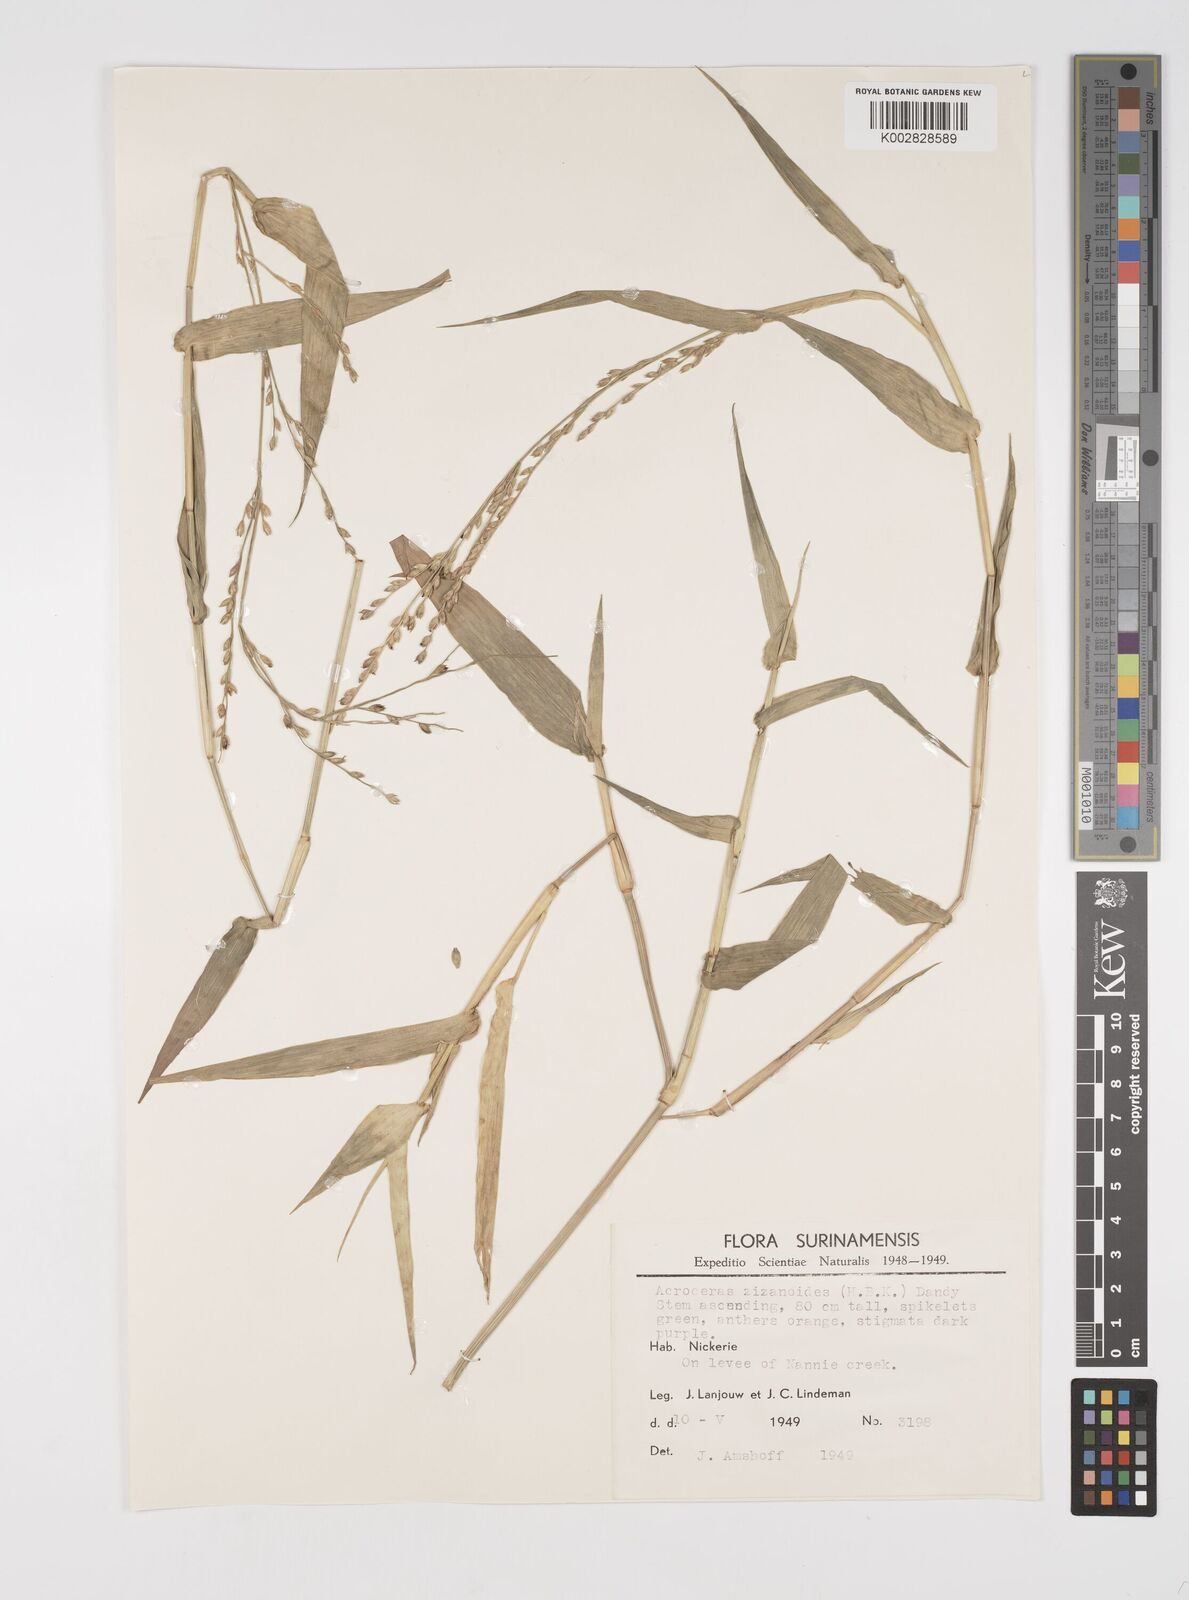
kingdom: Plantae
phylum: Tracheophyta
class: Liliopsida
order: Poales
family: Poaceae
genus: Acroceras
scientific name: Acroceras zizanioides
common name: Oat grass
